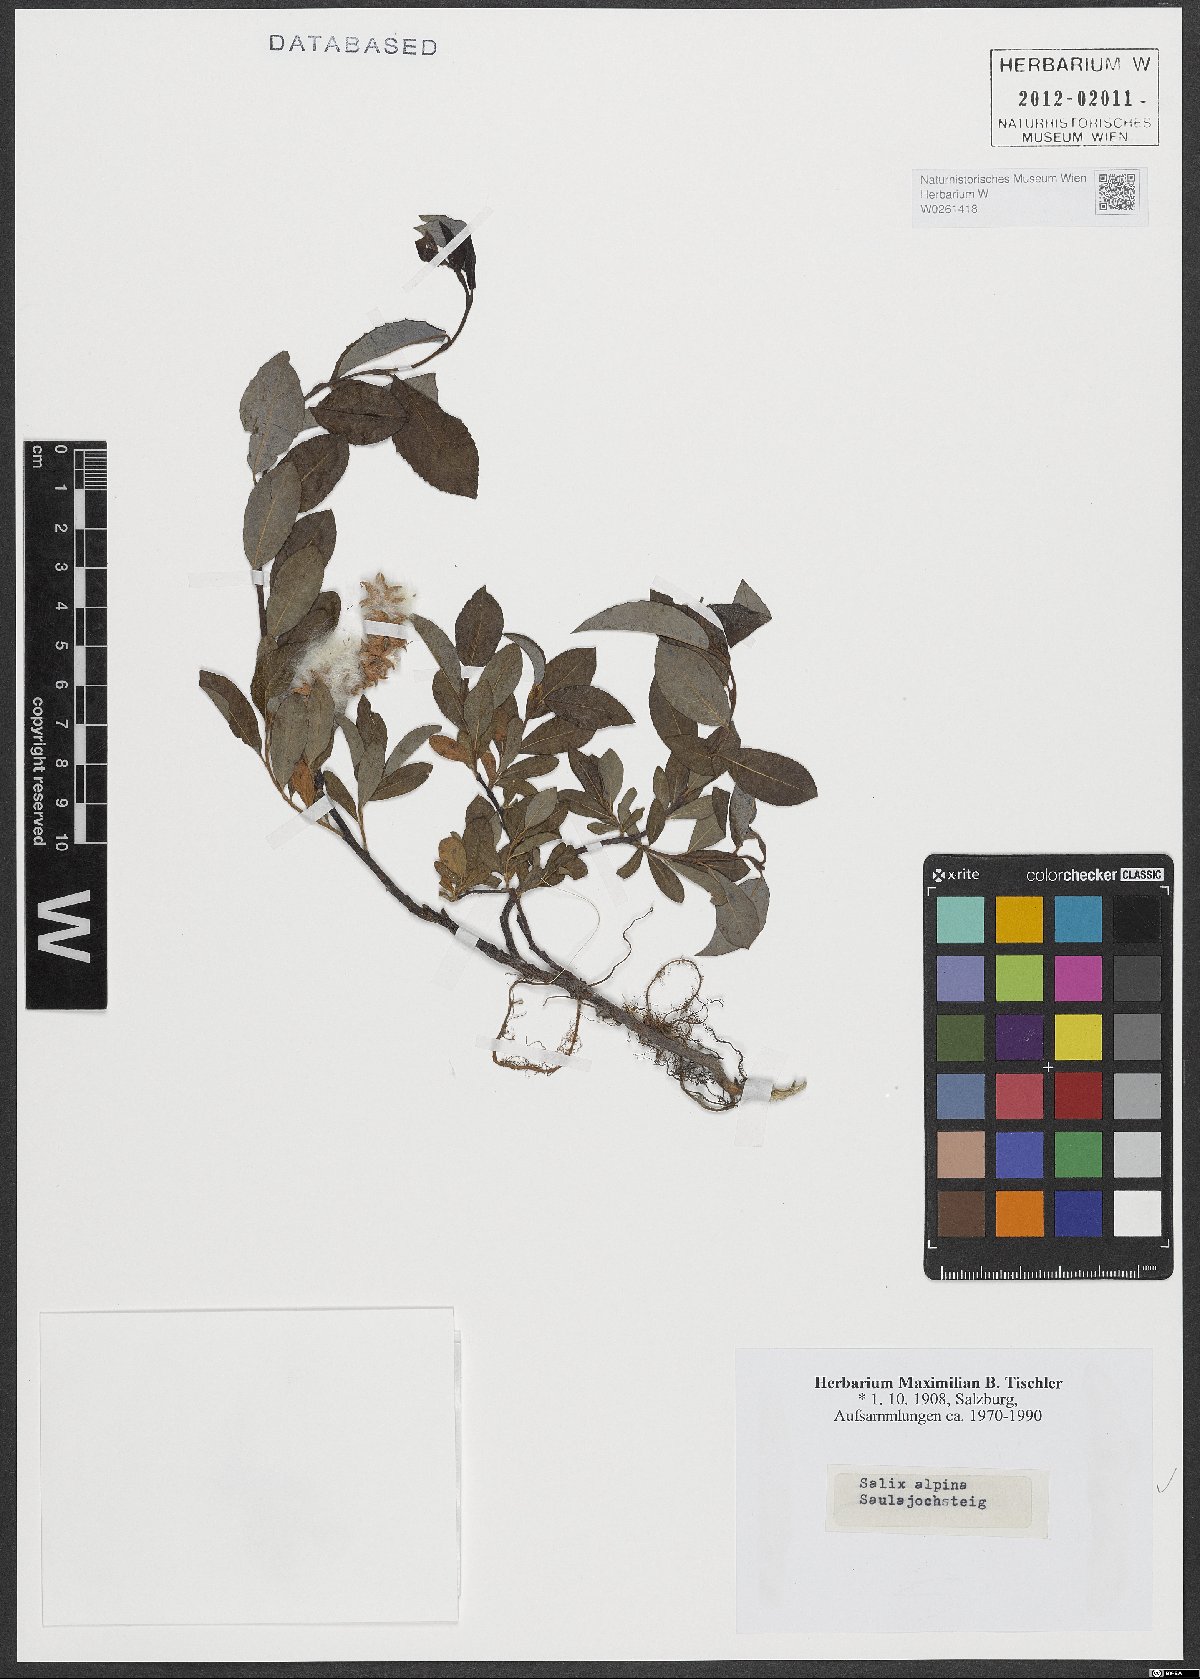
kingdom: Plantae
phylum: Tracheophyta
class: Magnoliopsida
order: Malpighiales
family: Salicaceae
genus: Salix
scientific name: Salix alpina
